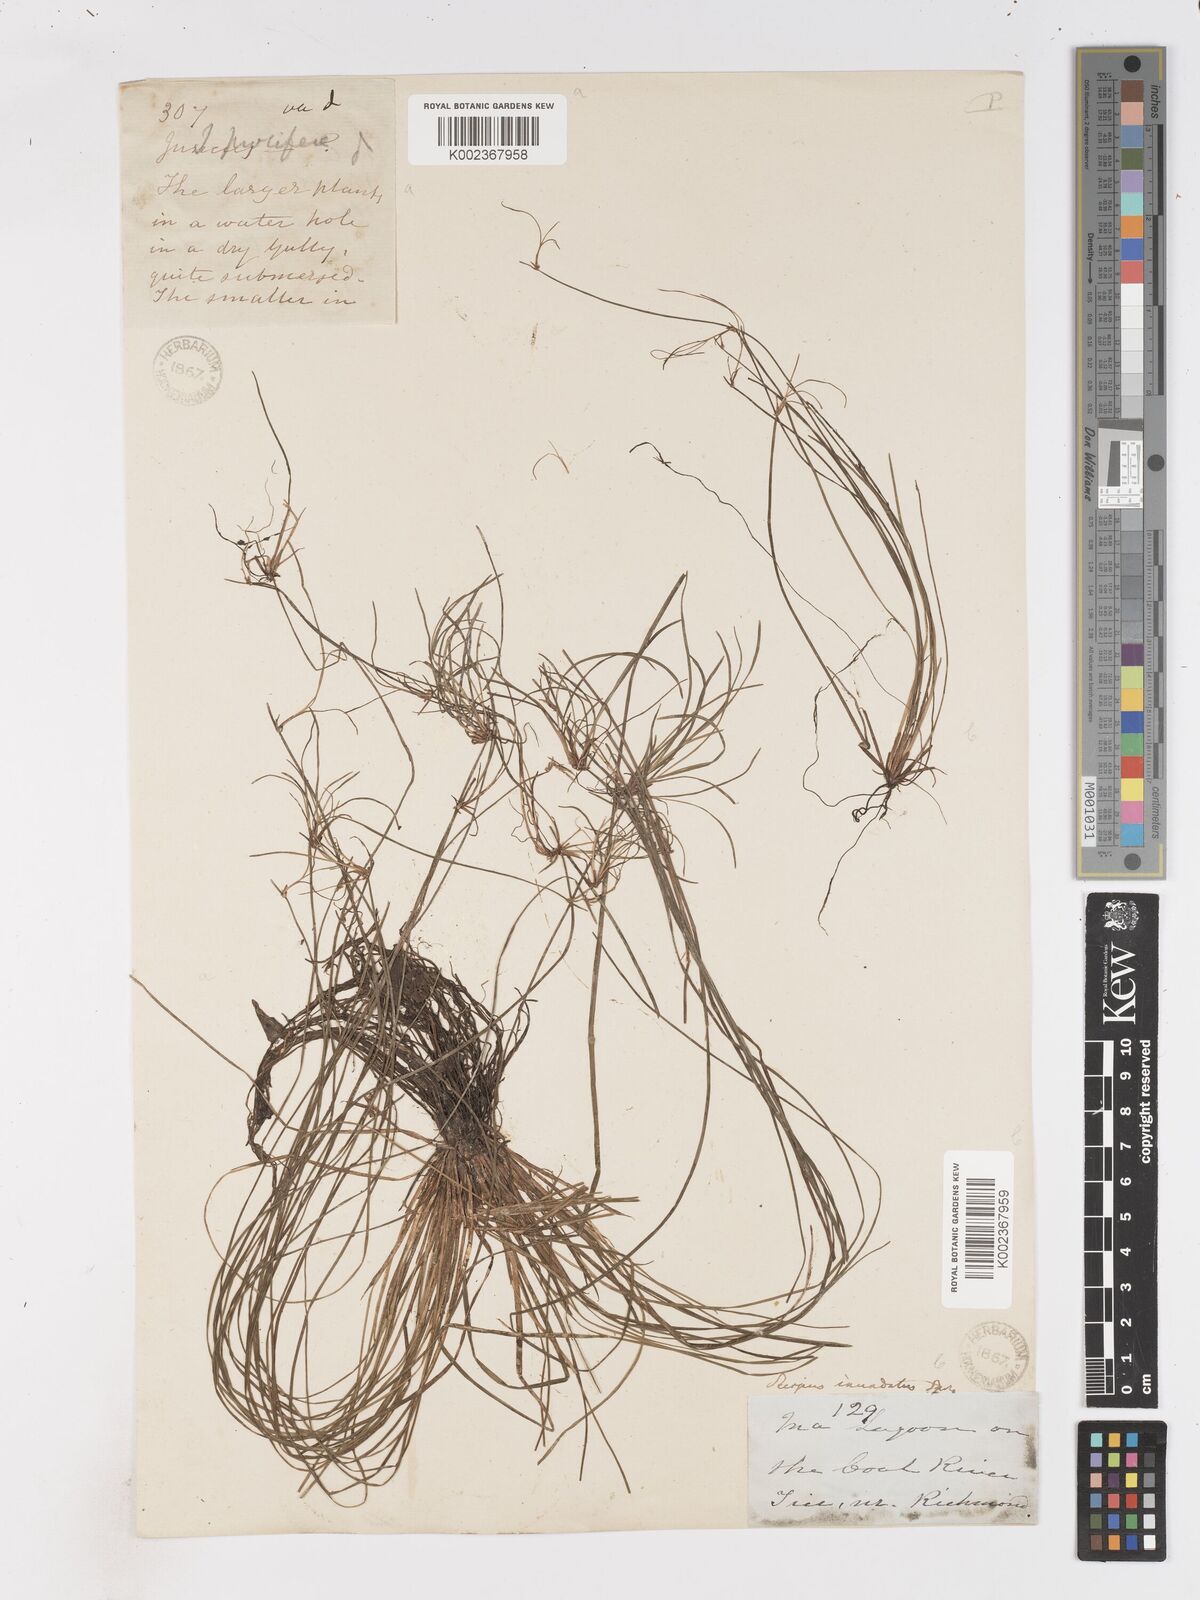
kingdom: Plantae
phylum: Tracheophyta
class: Liliopsida
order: Poales
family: Cyperaceae
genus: Isolepis
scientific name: Isolepis inundata
